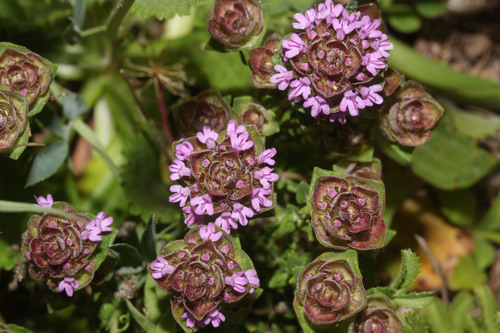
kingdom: Plantae
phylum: Tracheophyta
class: Magnoliopsida
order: Lamiales
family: Lamiaceae
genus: Thymus
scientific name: Thymus camphoratus
